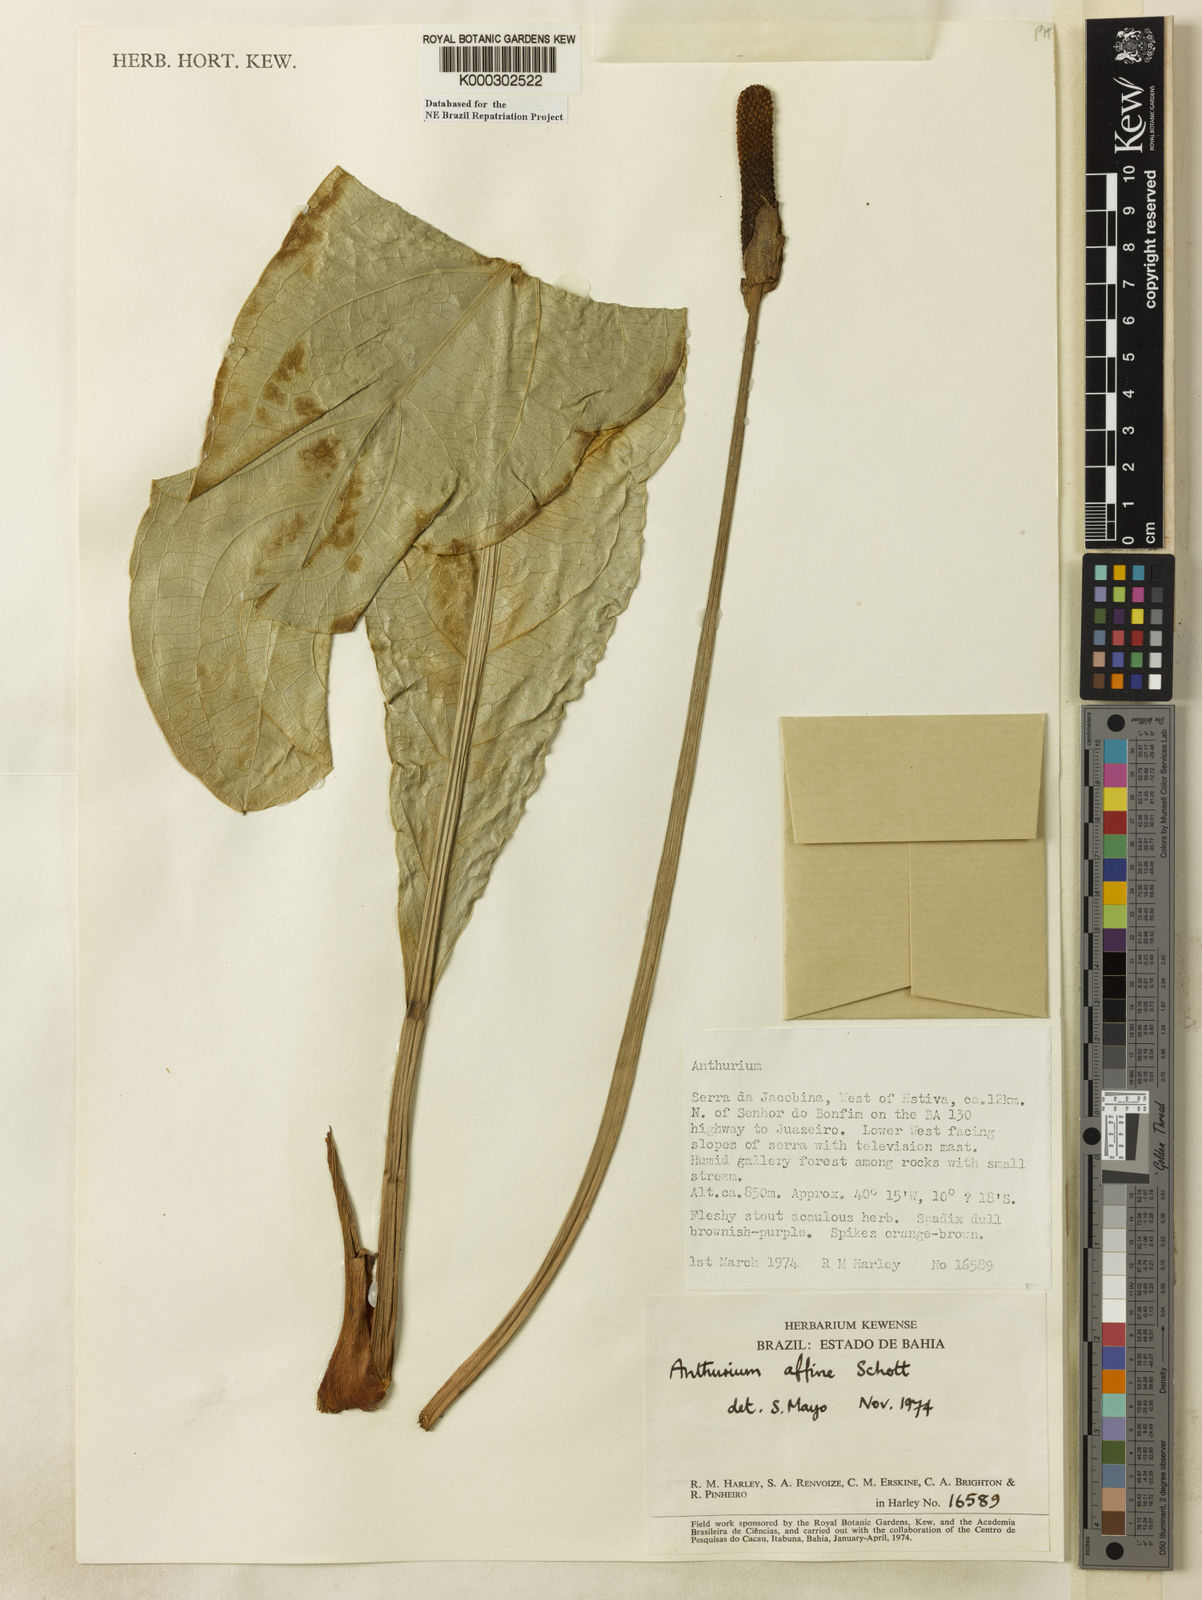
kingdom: Plantae
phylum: Tracheophyta
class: Liliopsida
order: Alismatales
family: Araceae
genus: Anthurium
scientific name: Anthurium affine
